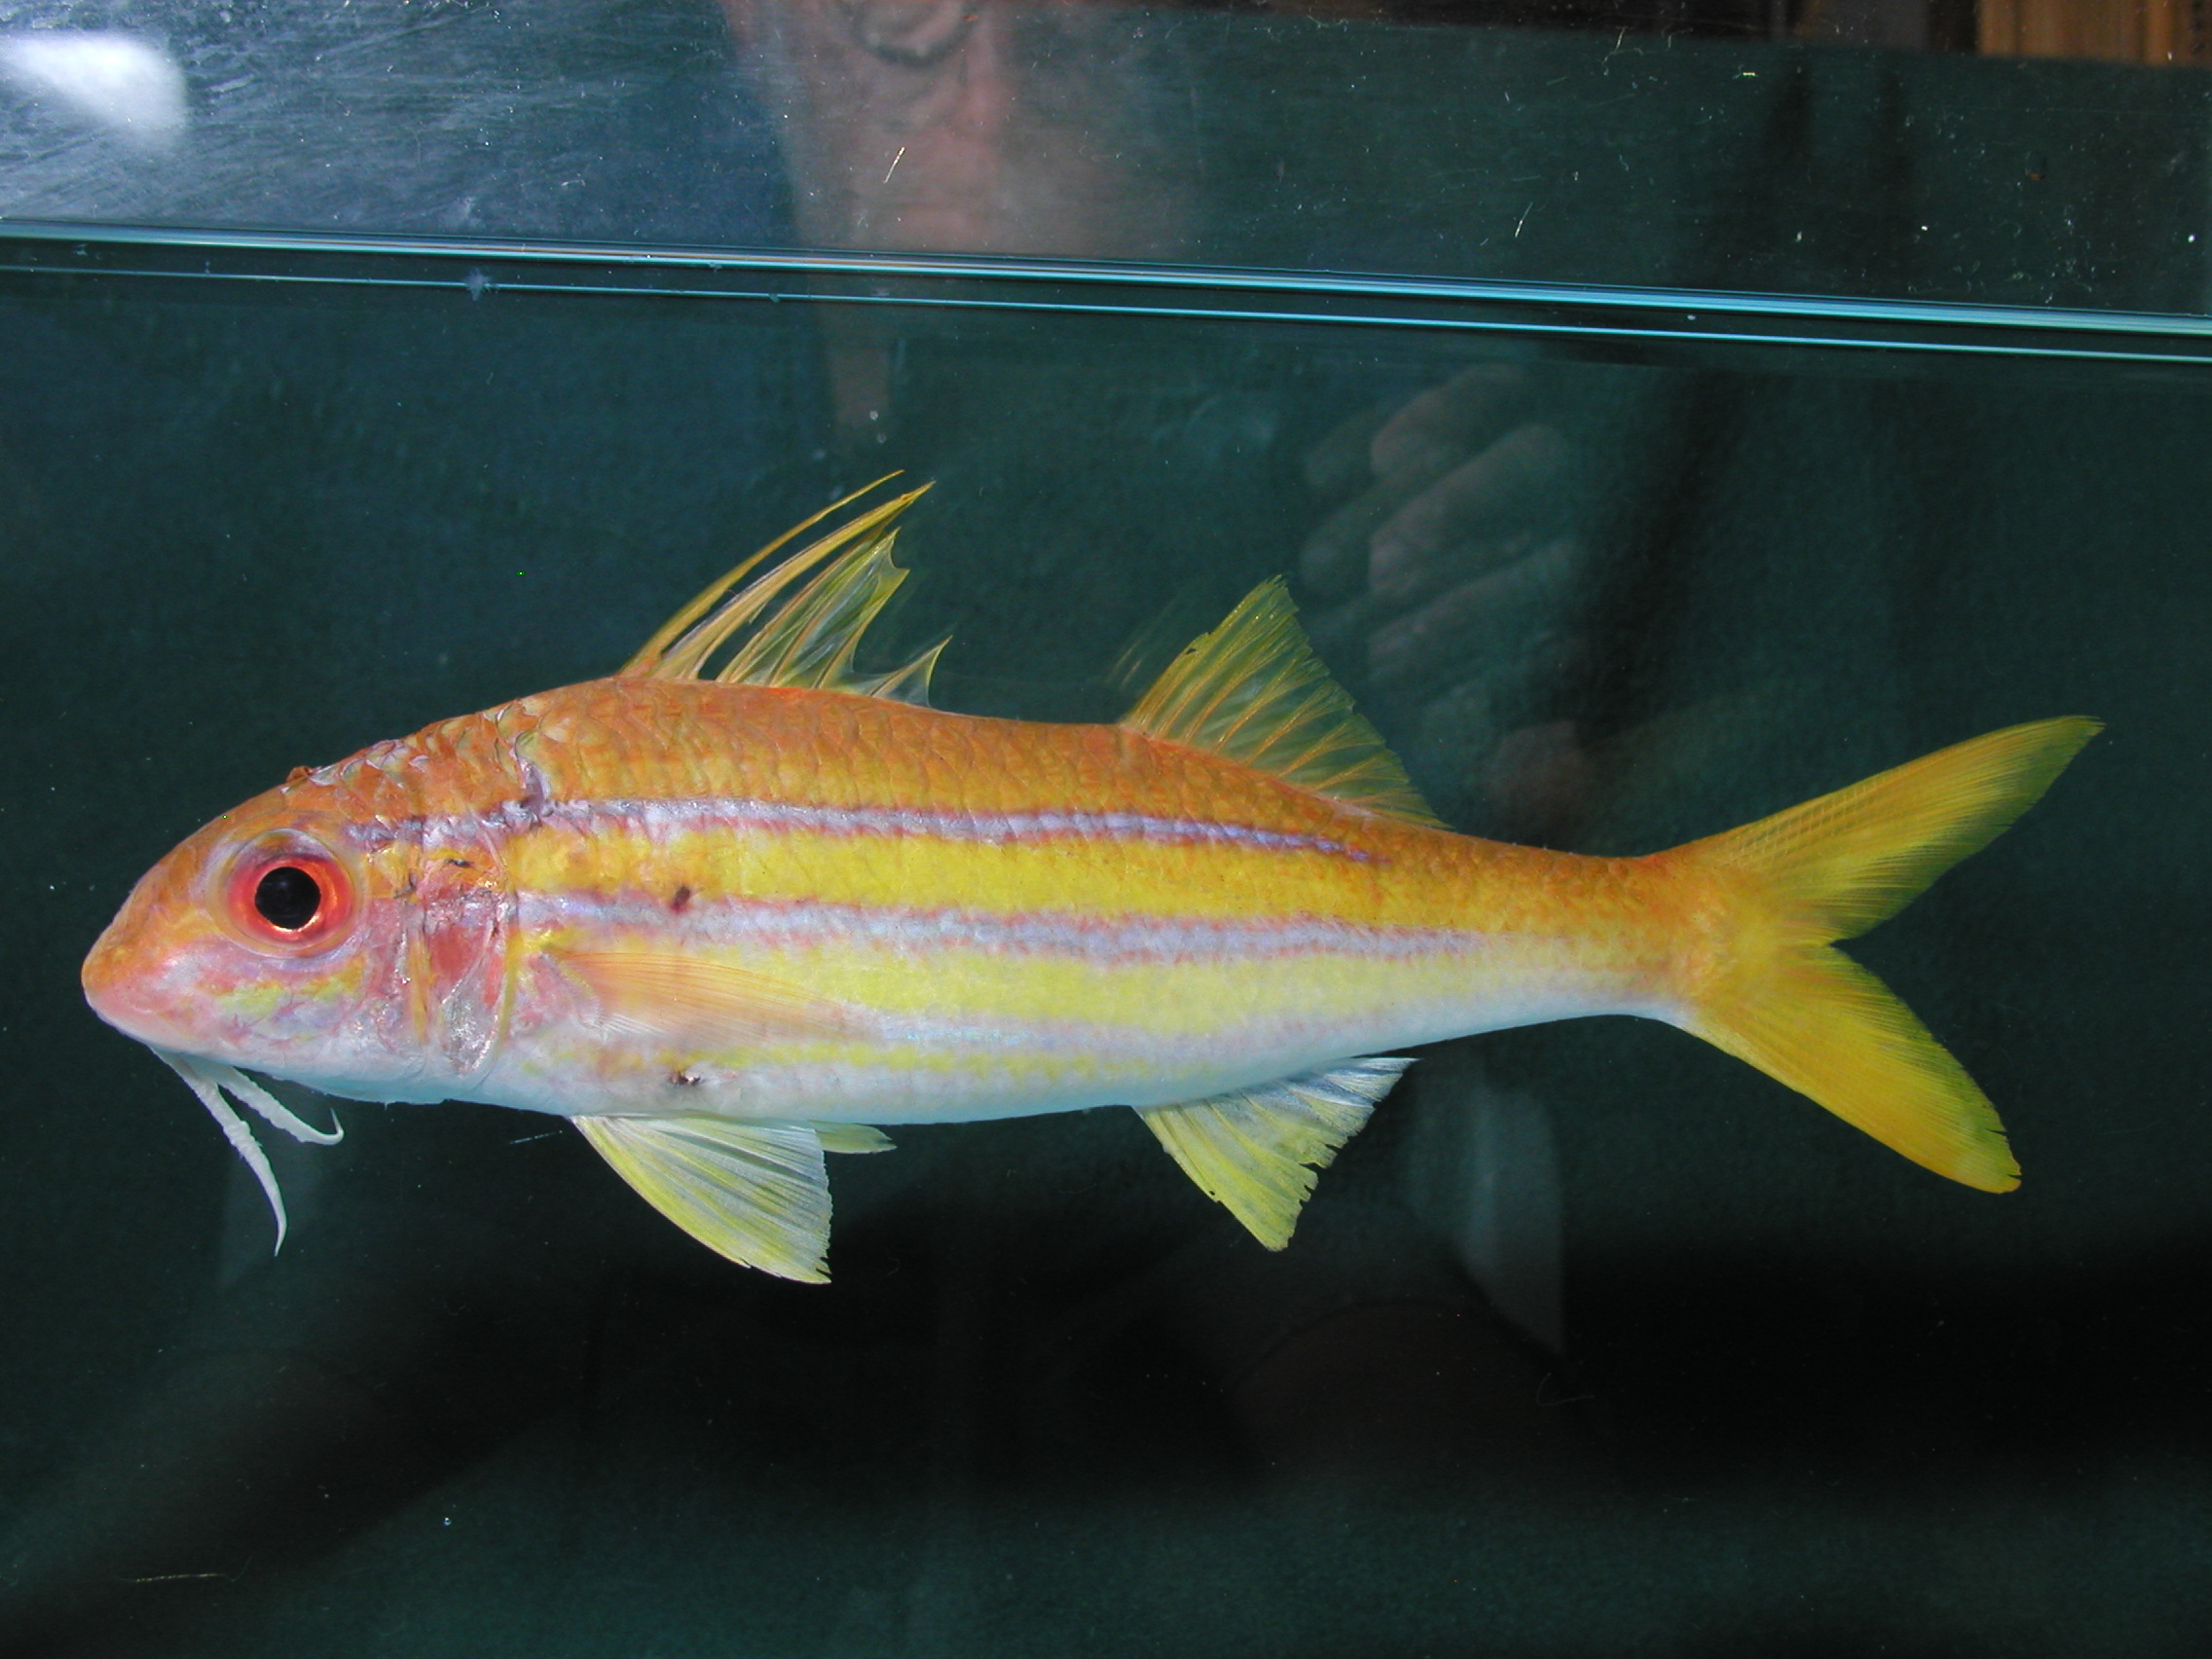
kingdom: Animalia
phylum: Chordata
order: Perciformes
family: Mullidae
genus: Mulloidichthys
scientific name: Mulloidichthys ayliffe
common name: Indian mimic goatfish
